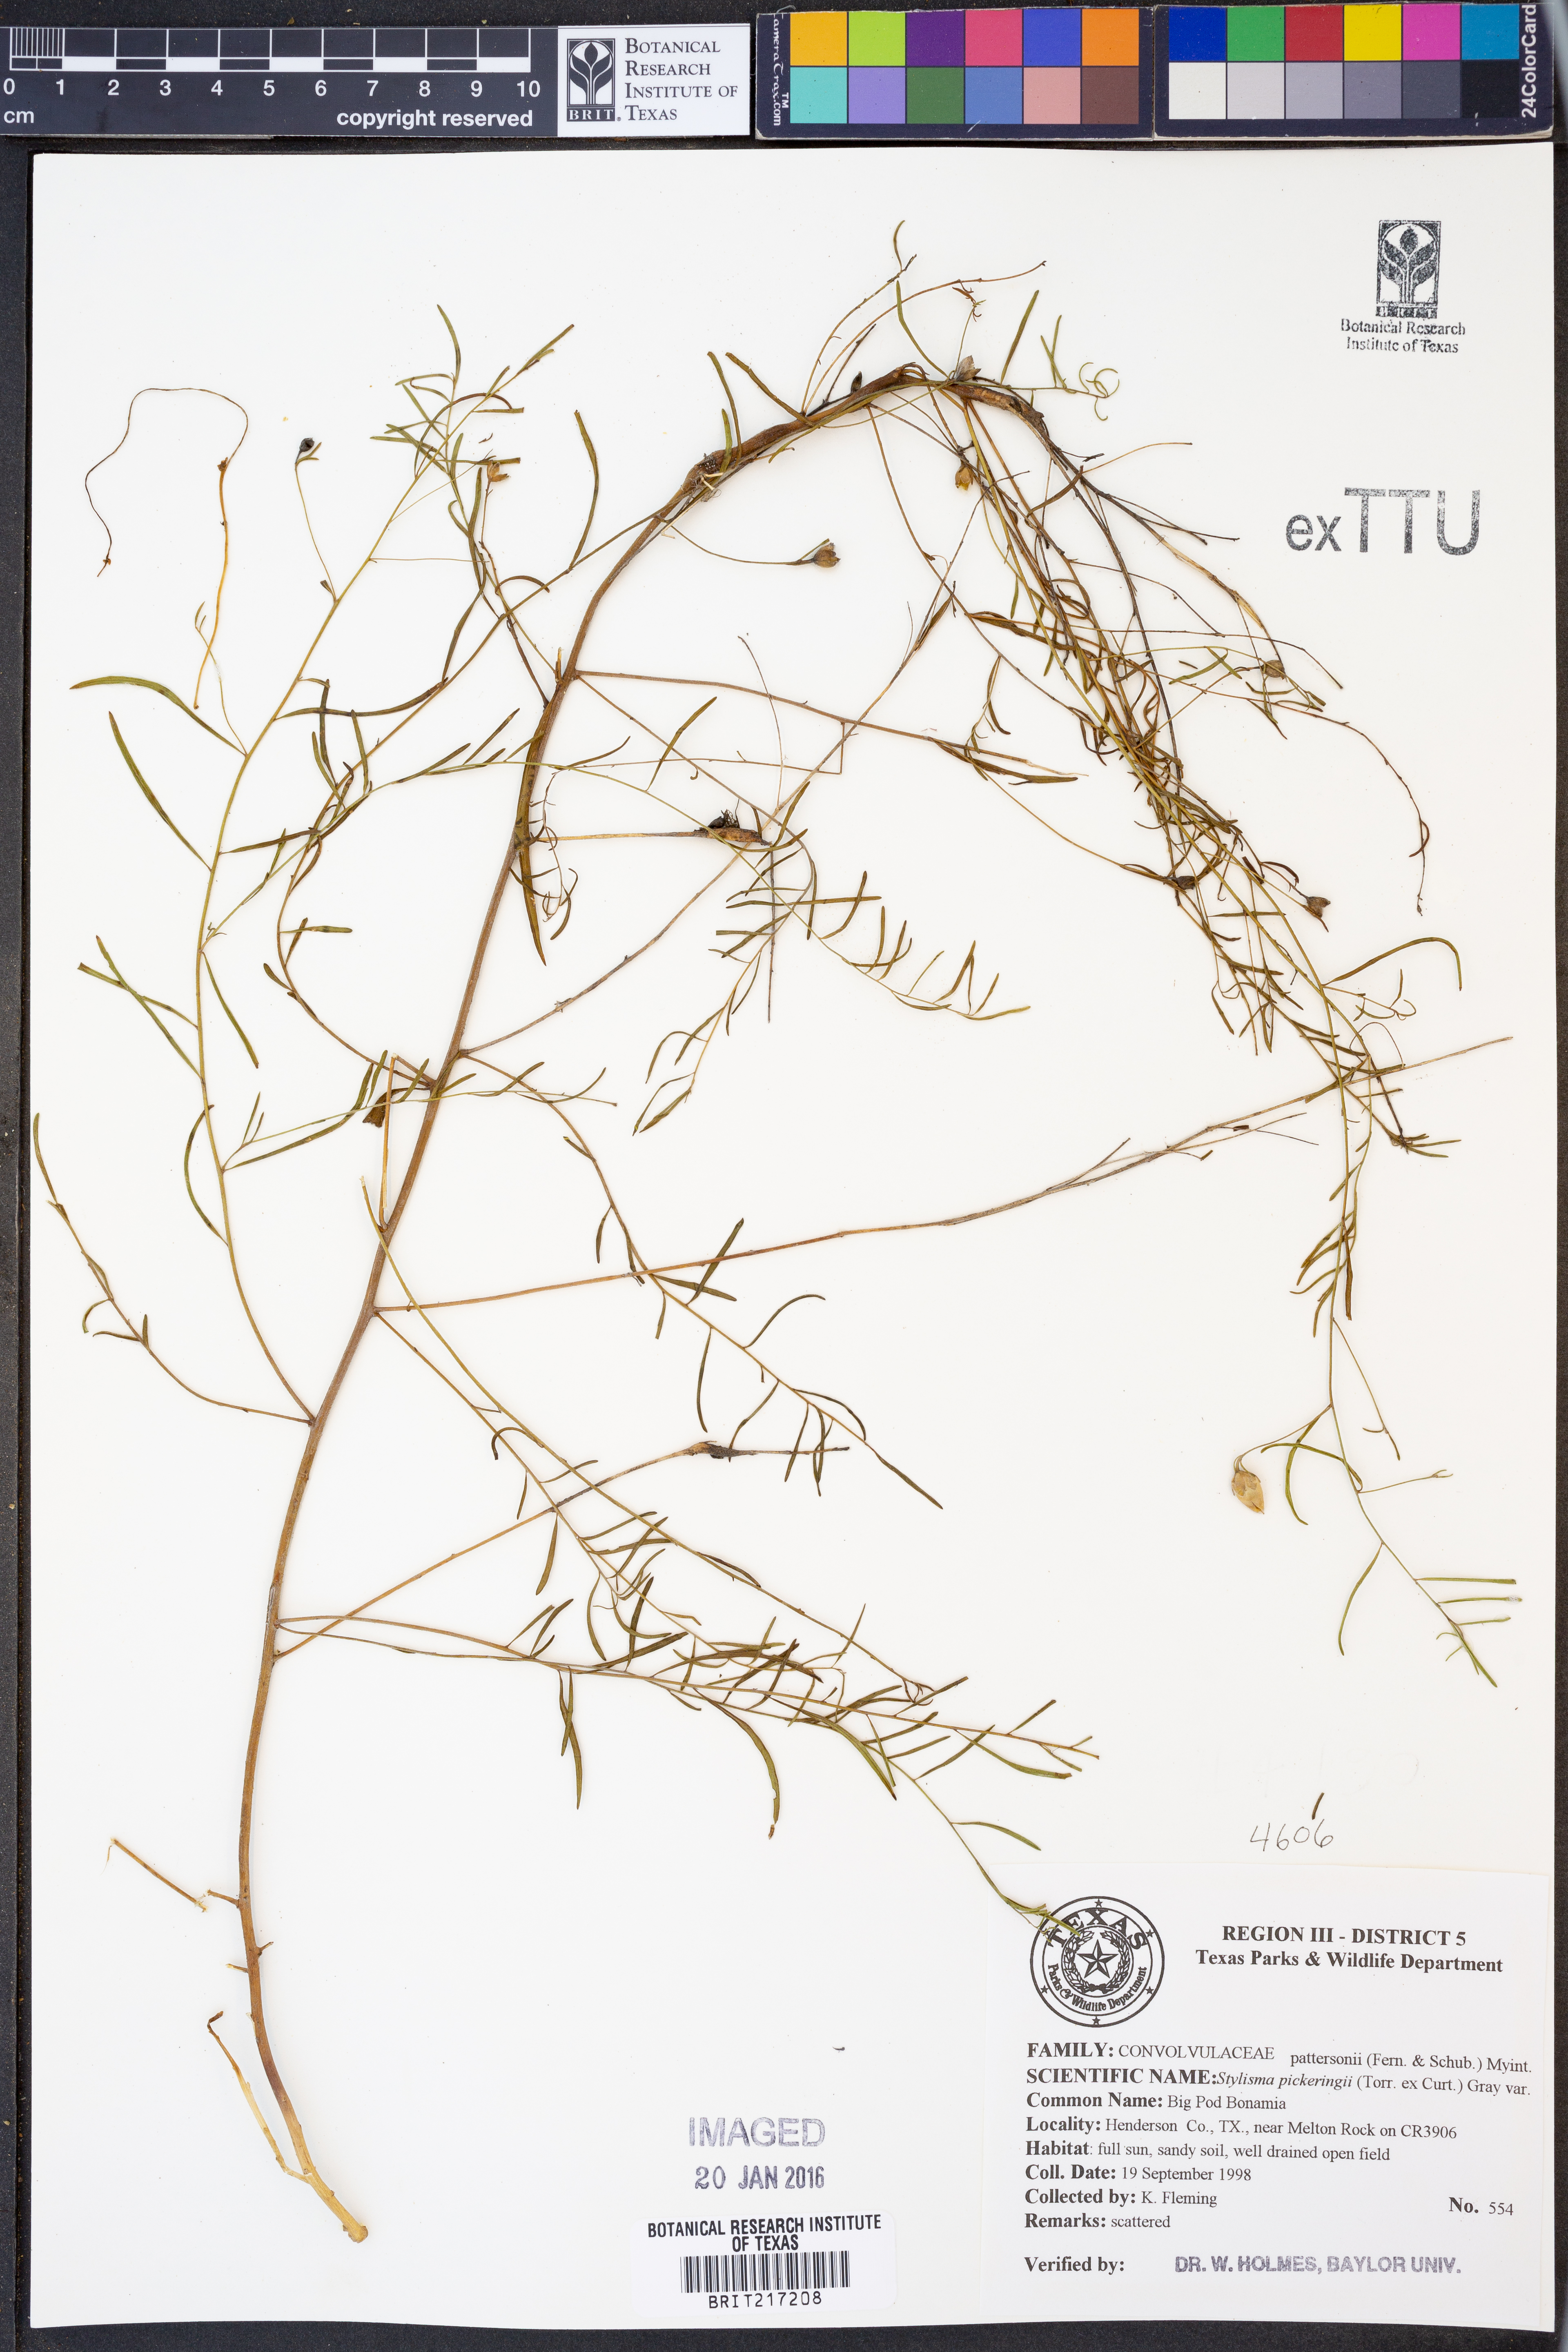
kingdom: Plantae
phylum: Tracheophyta
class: Magnoliopsida
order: Solanales
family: Convolvulaceae
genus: Stylisma
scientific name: Stylisma pickeringii
